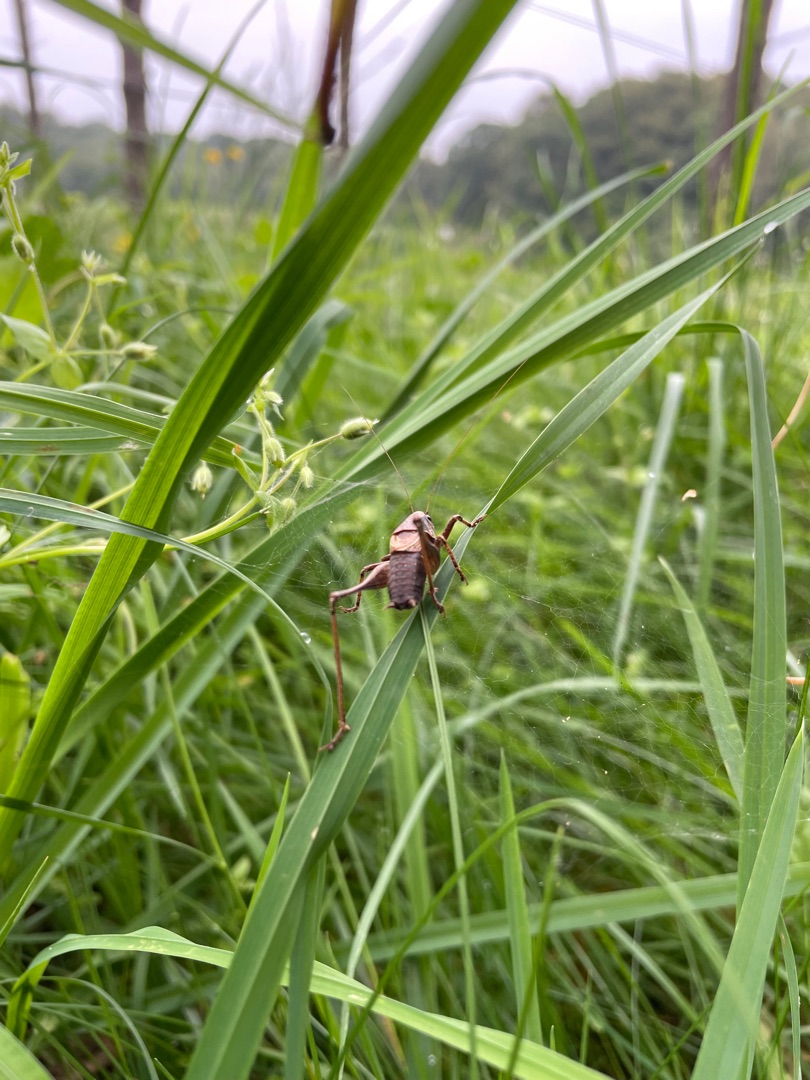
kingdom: Animalia
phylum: Arthropoda
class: Insecta
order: Orthoptera
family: Tettigoniidae
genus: Pholidoptera
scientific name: Pholidoptera griseoaptera
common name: Buskgræshoppe
